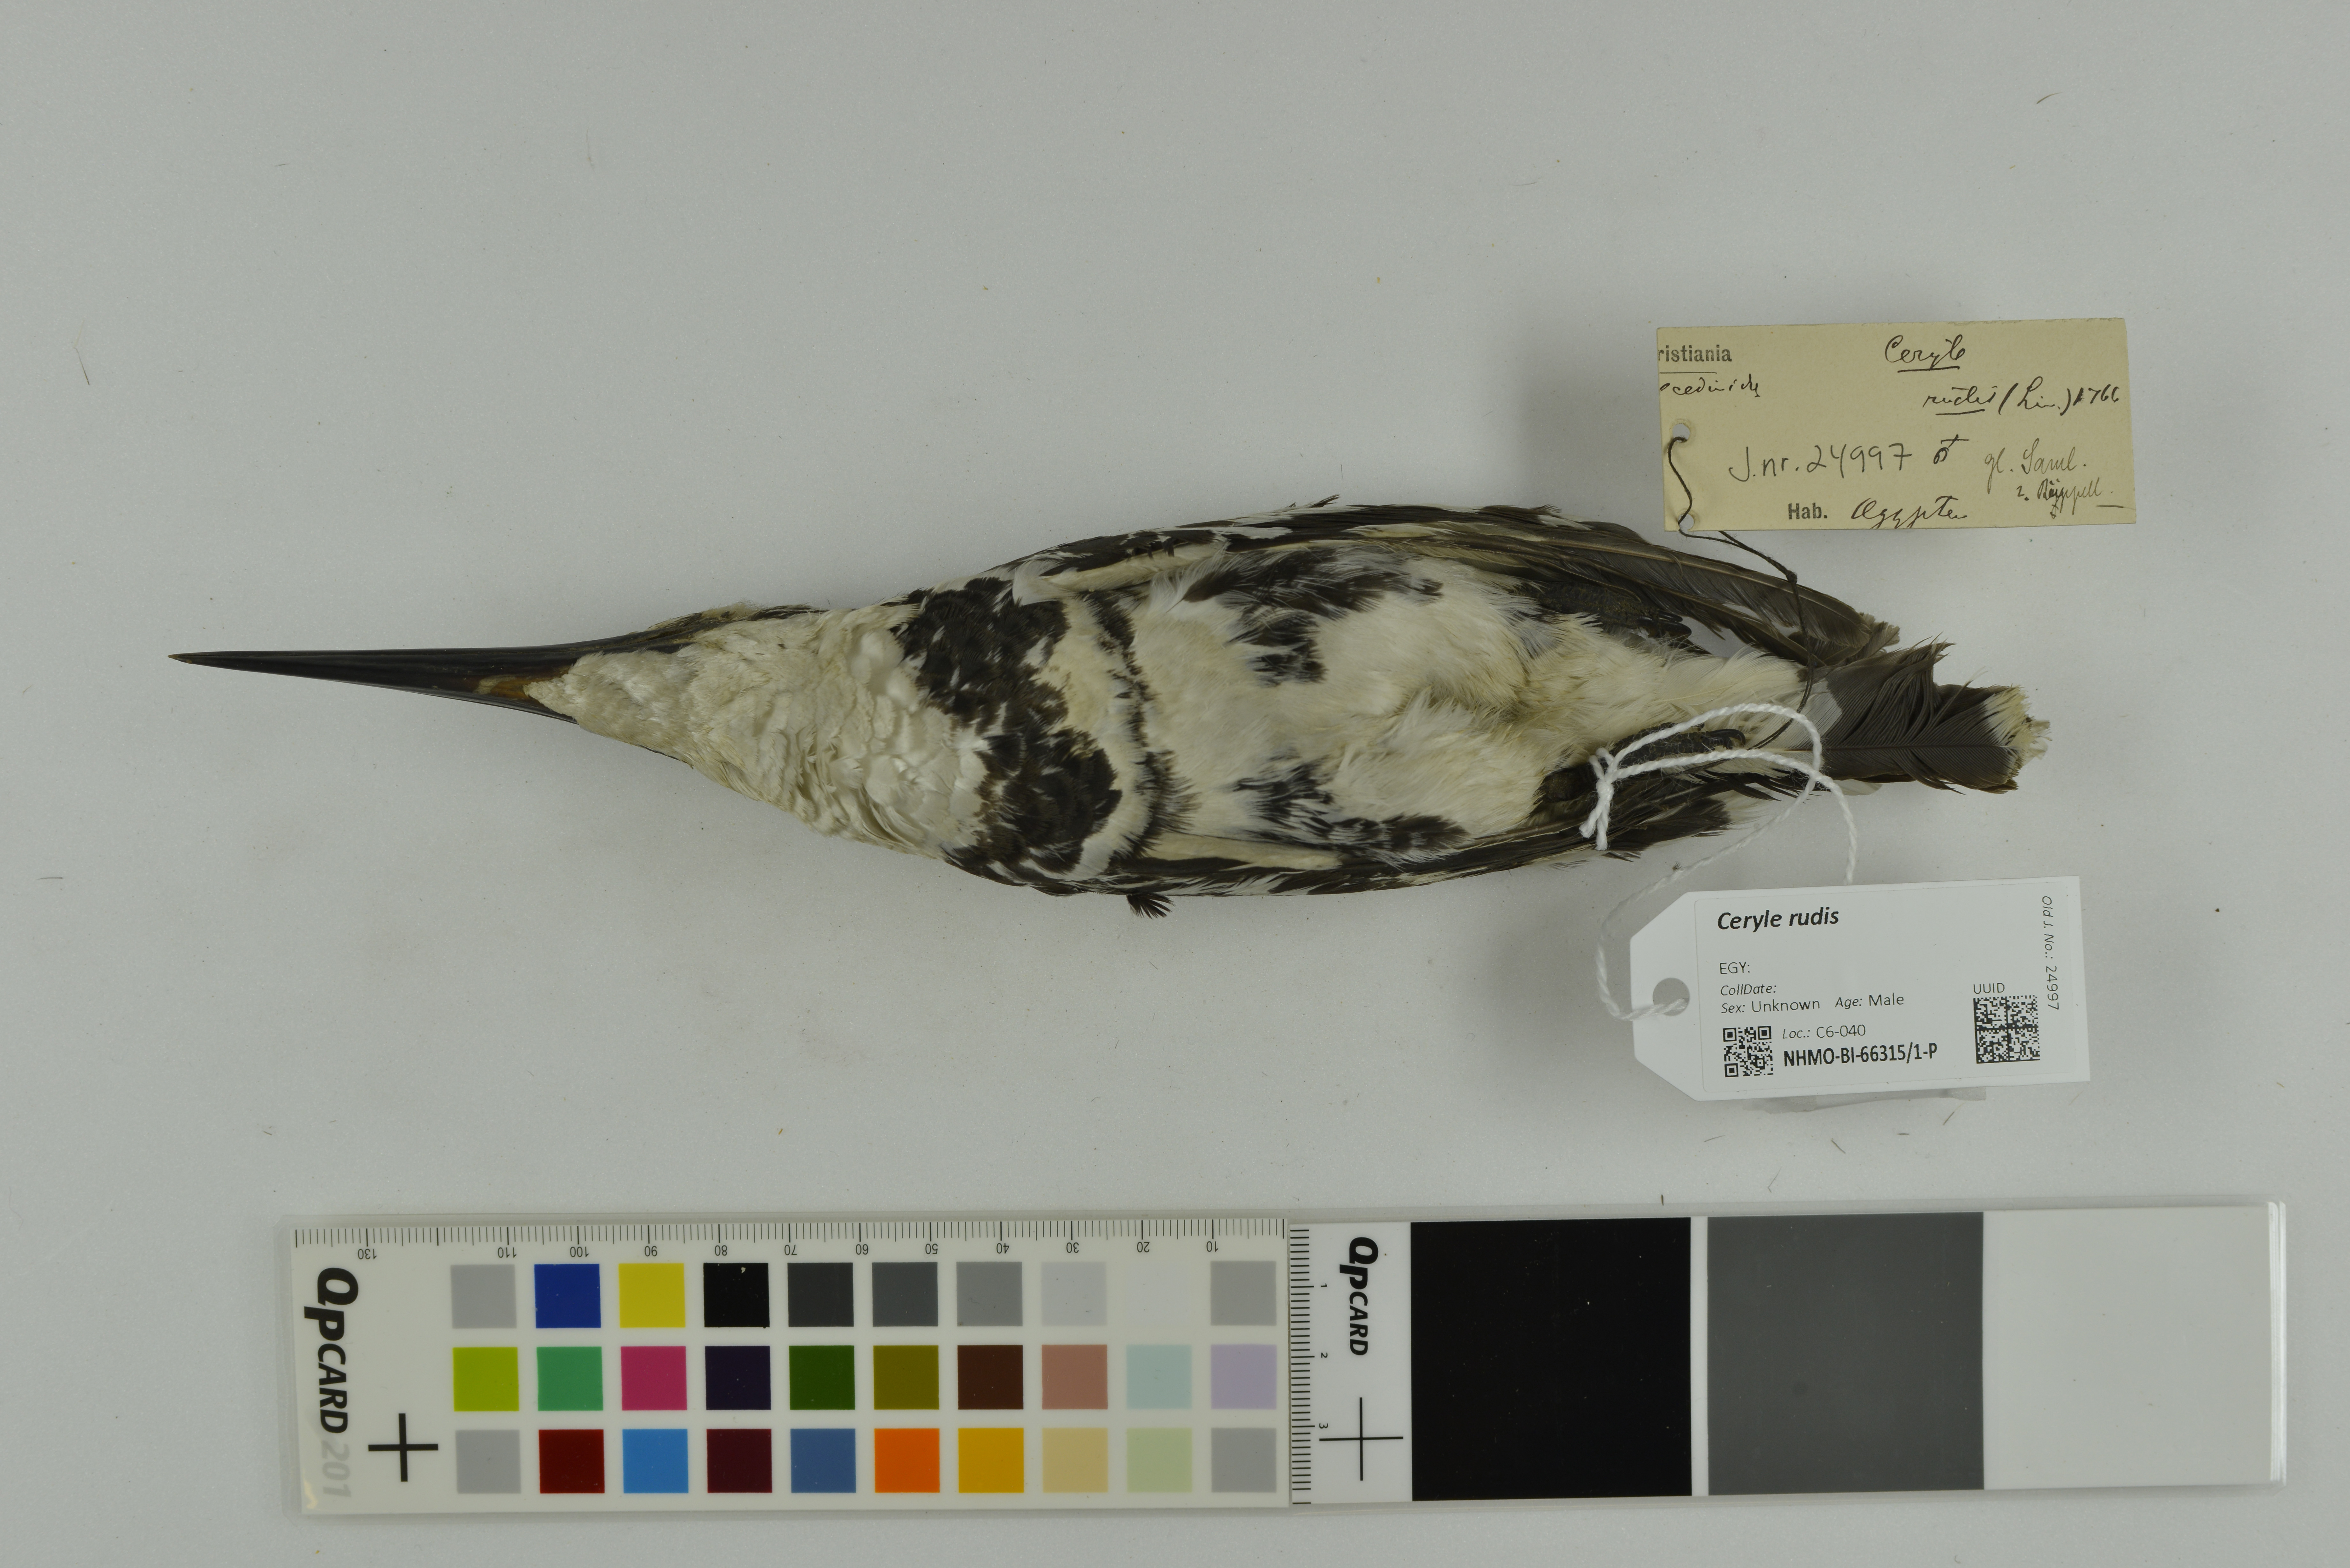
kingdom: Animalia
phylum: Chordata
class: Aves
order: Coraciiformes
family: Alcedinidae
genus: Ceryle
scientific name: Ceryle rudis
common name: Pied kingfisher
